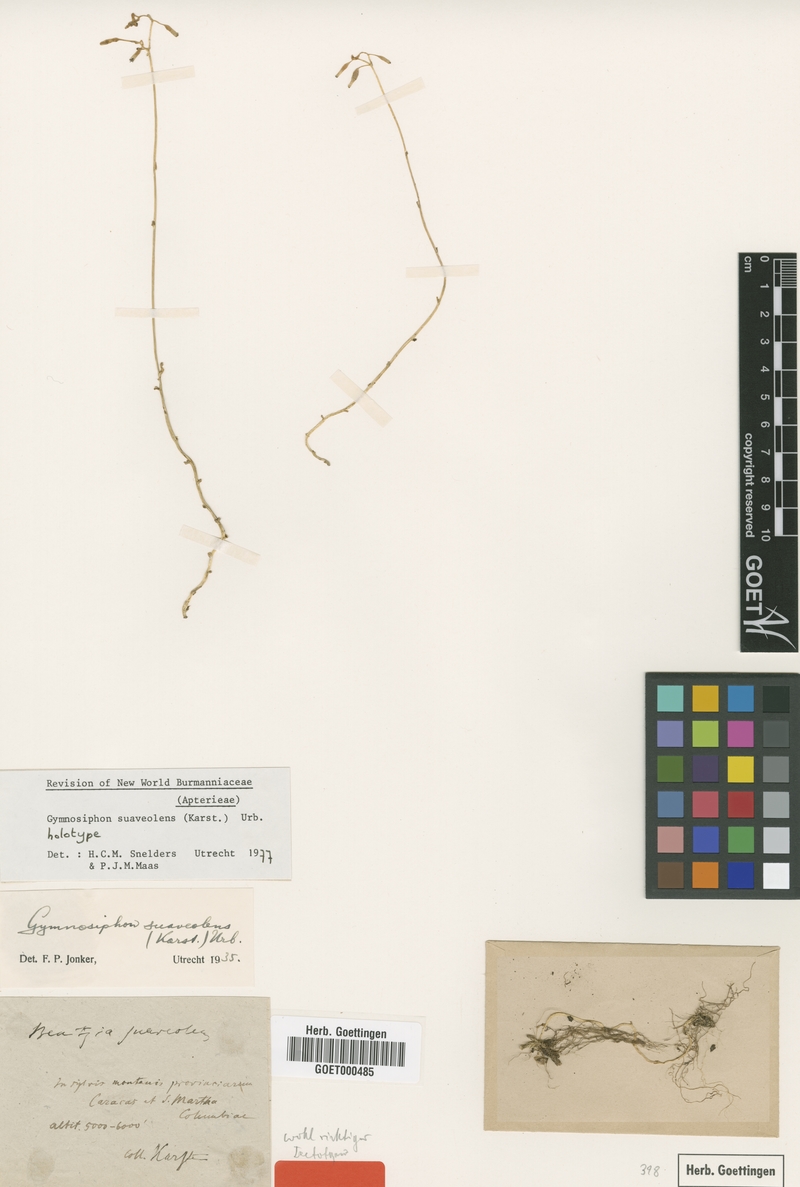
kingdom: Plantae
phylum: Tracheophyta
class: Liliopsida
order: Dioscoreales
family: Burmanniaceae
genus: Gymnosiphon
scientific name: Gymnosiphon suaveolens
